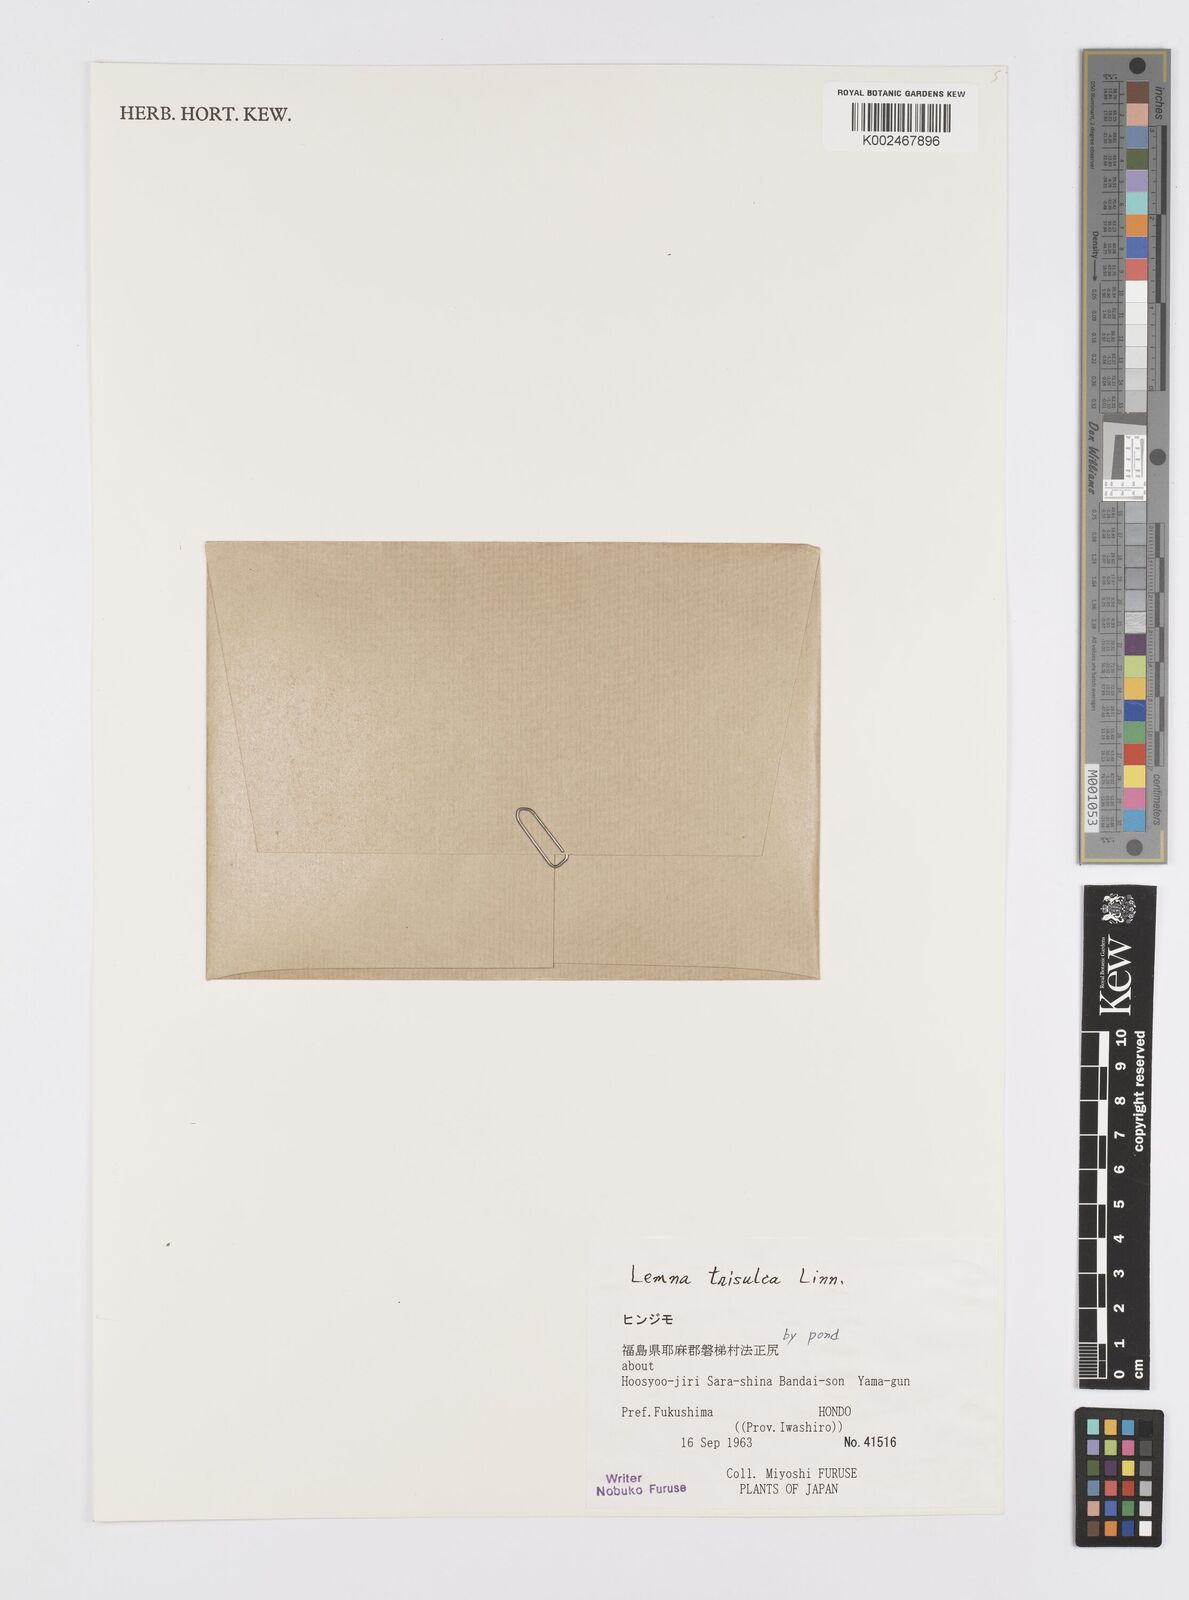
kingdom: Plantae
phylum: Tracheophyta
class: Liliopsida
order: Alismatales
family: Araceae
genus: Lemna
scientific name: Lemna trisulca
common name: Ivy-leaved duckweed
